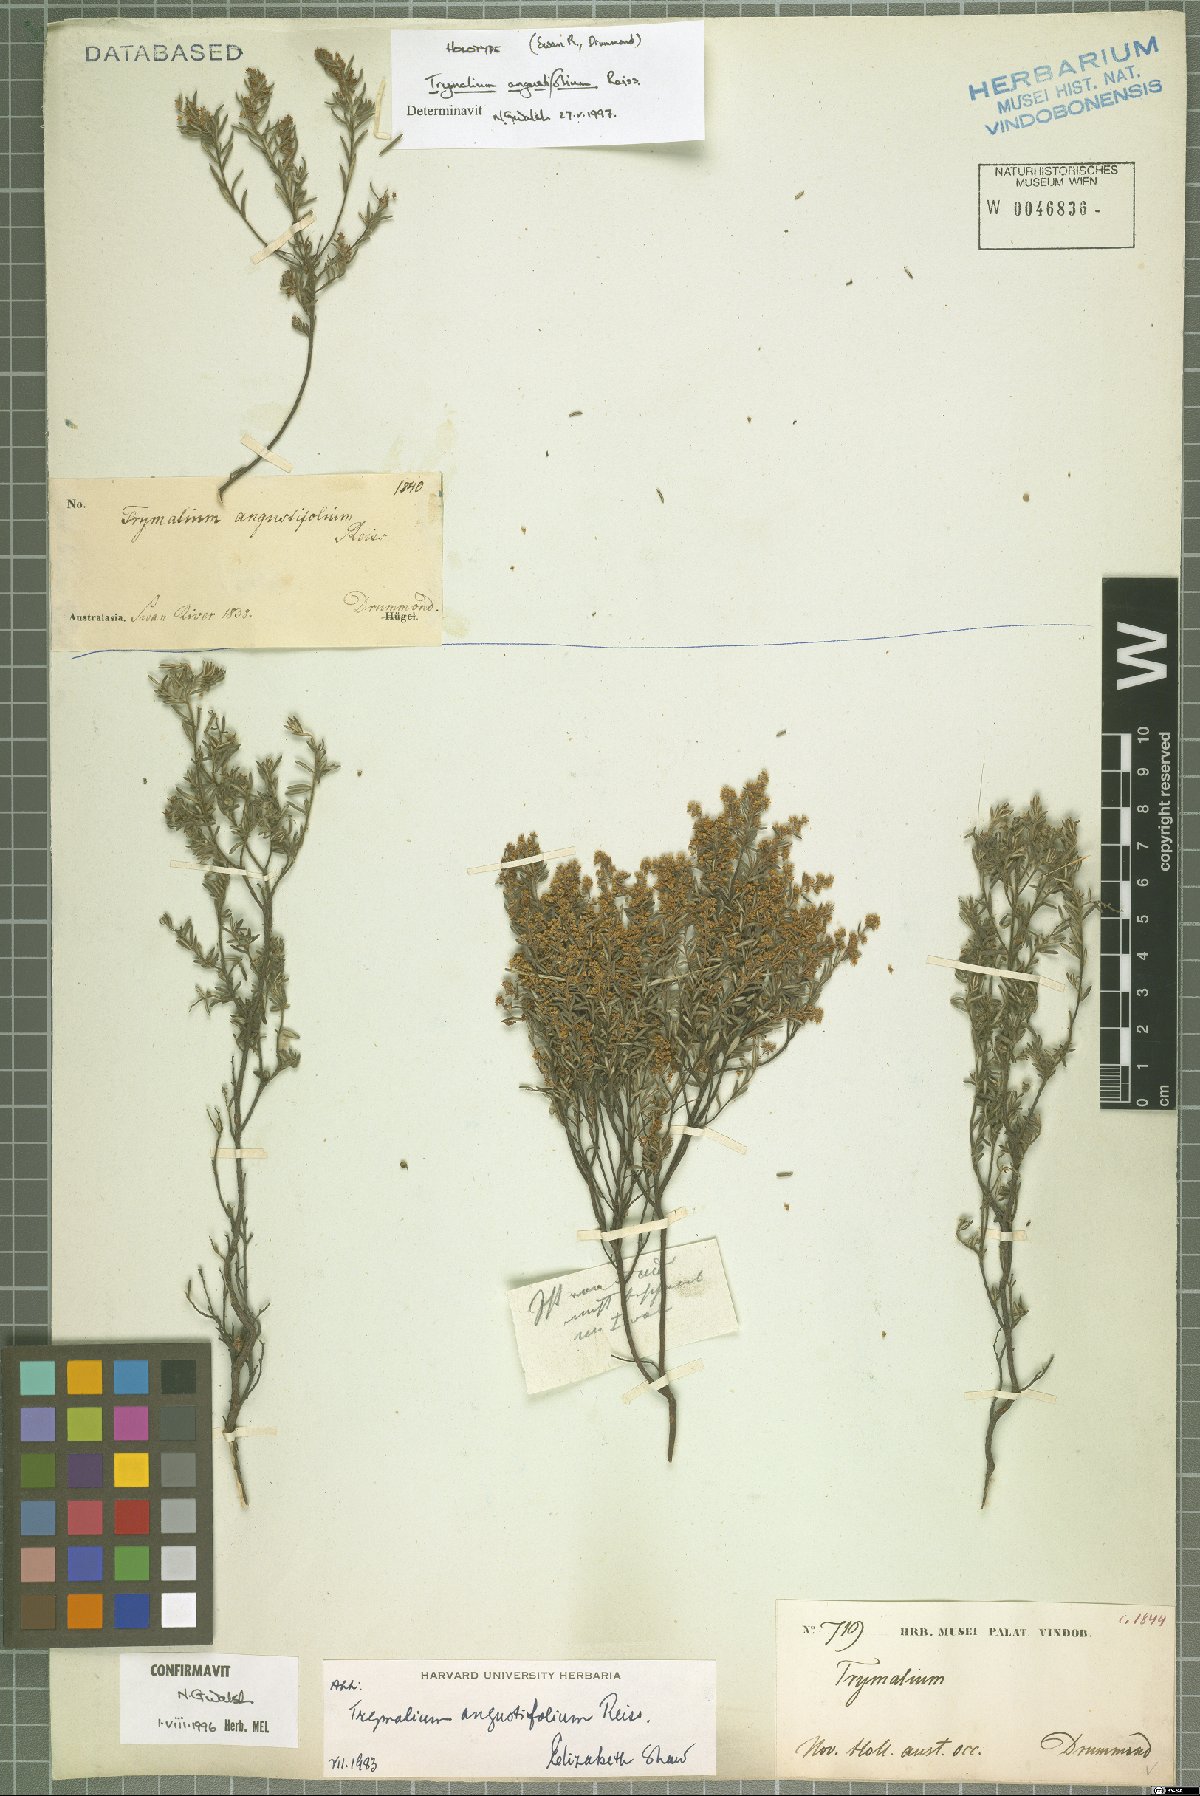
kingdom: Plantae
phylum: Tracheophyta
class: Magnoliopsida
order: Rosales
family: Rhamnaceae
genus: Trymalium
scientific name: Trymalium angustifolium
